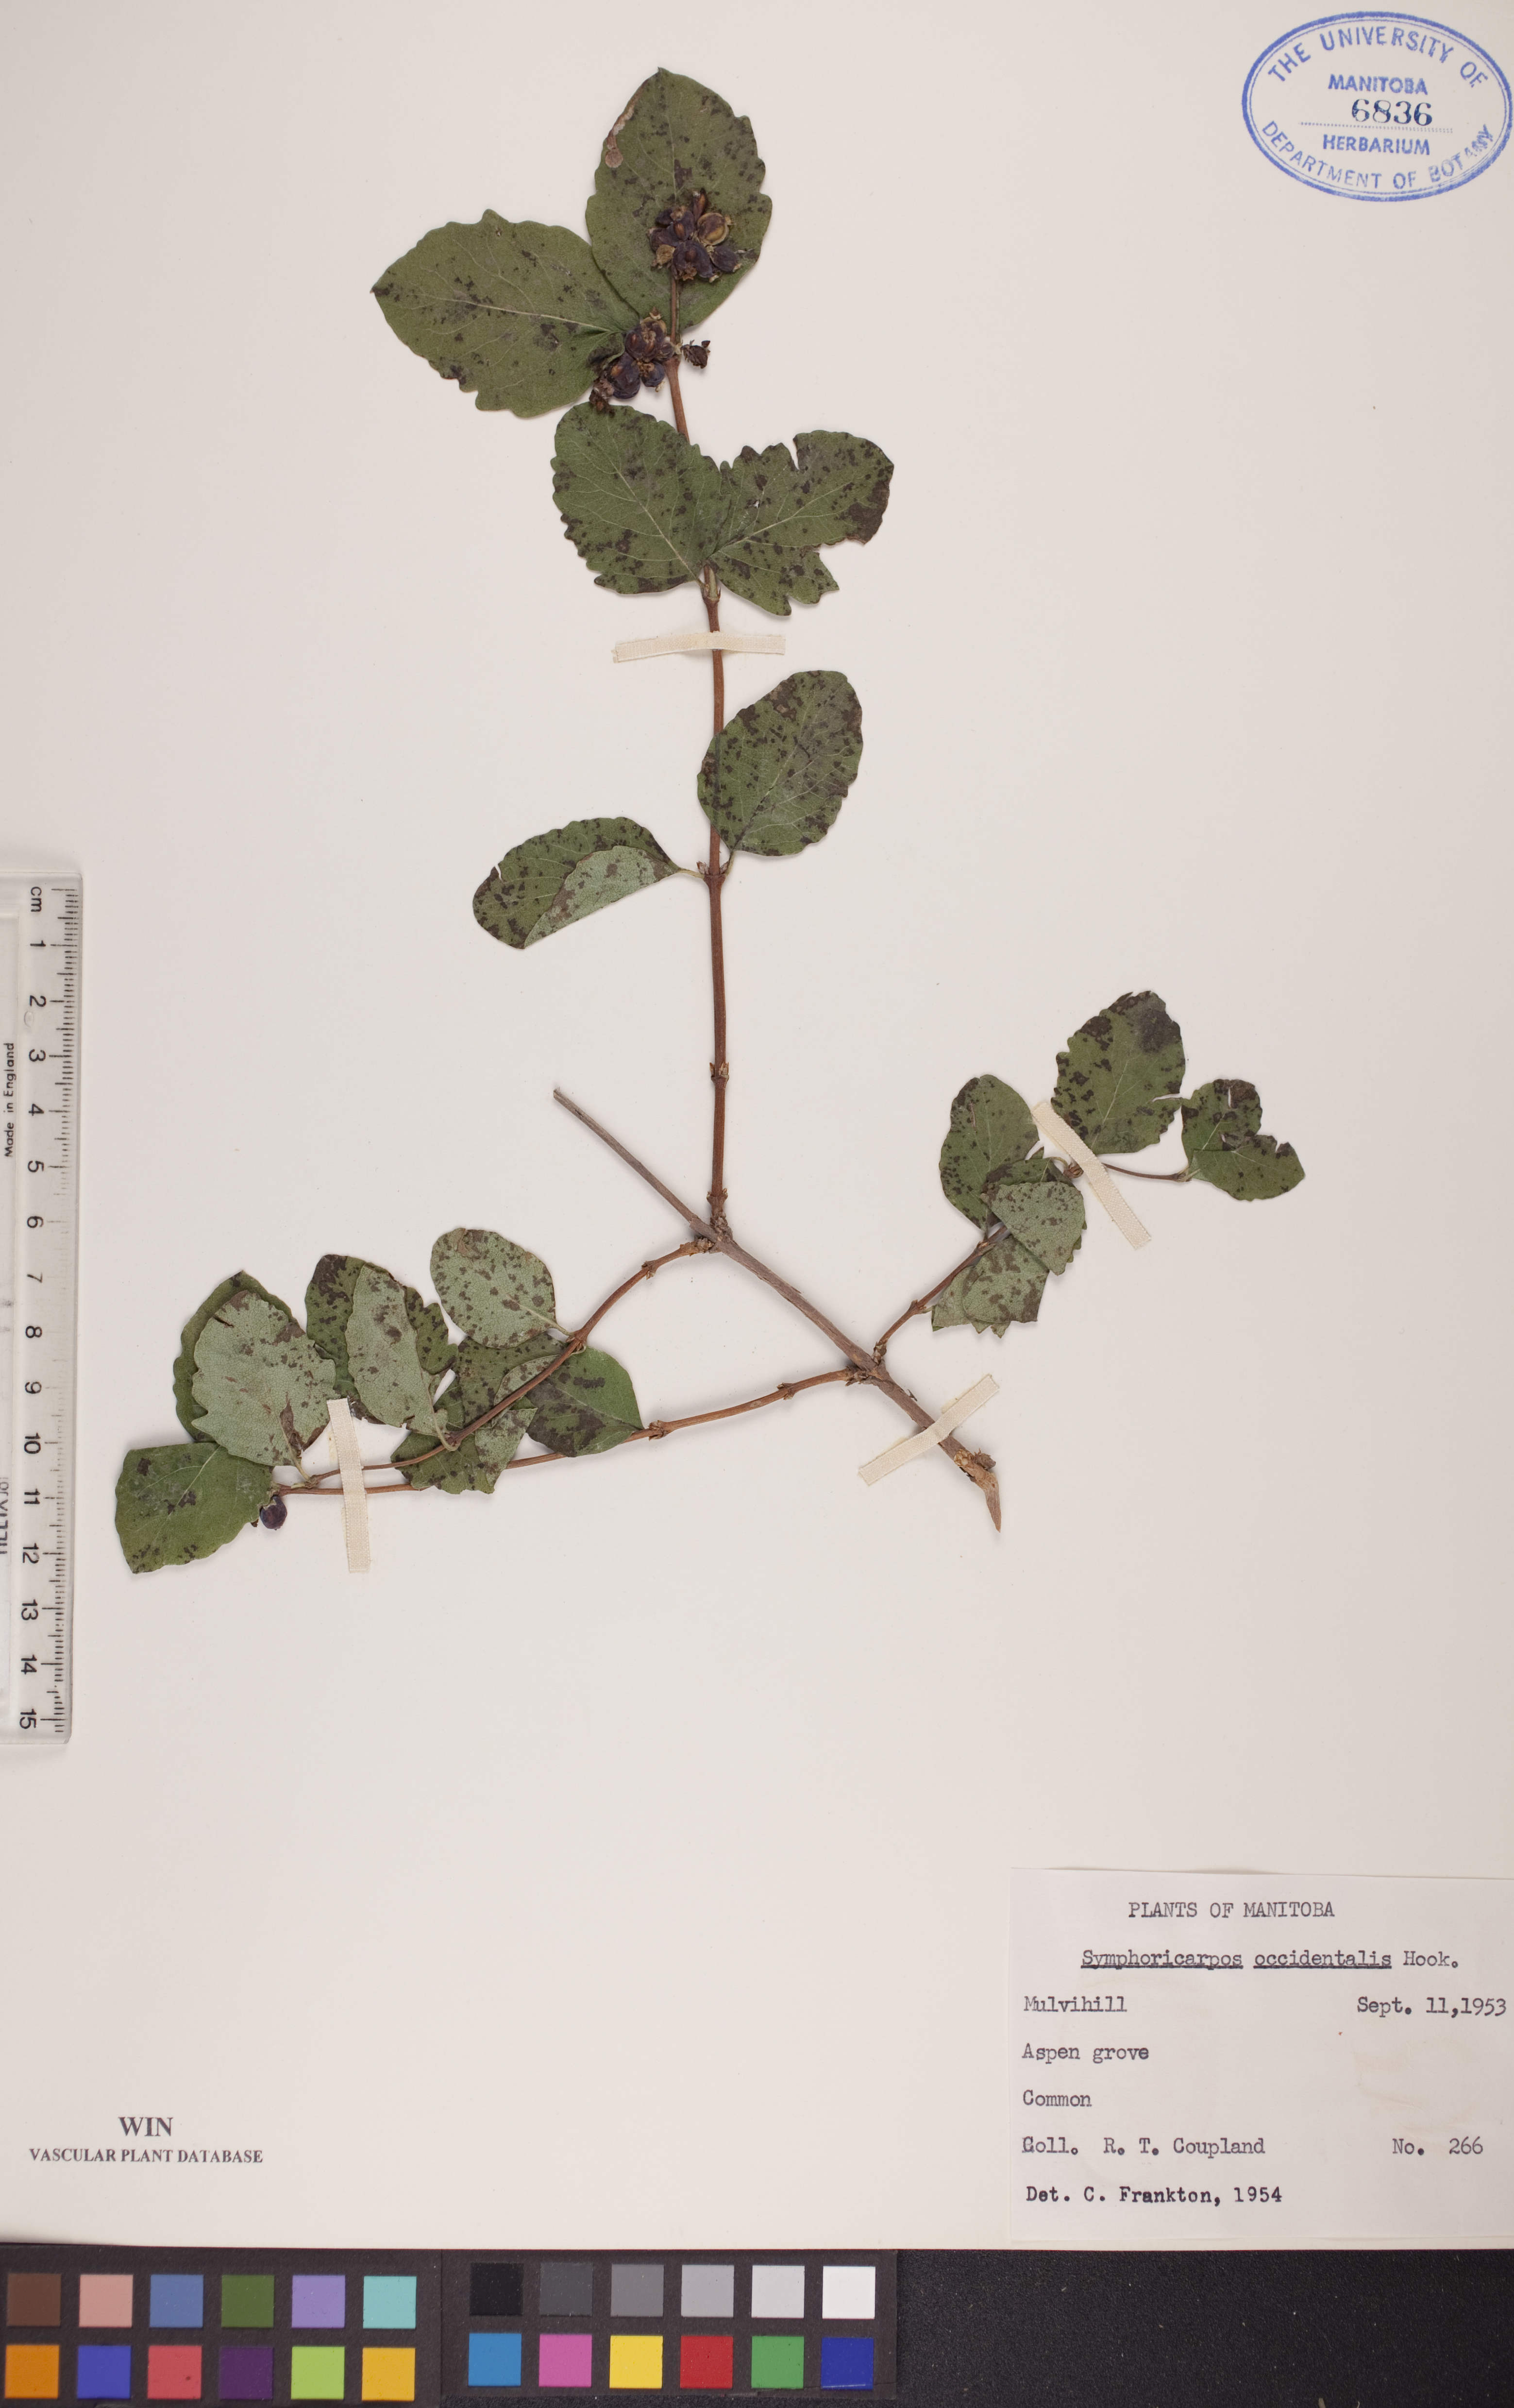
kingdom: Plantae
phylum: Tracheophyta
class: Magnoliopsida
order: Dipsacales
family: Caprifoliaceae
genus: Symphoricarpos
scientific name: Symphoricarpos occidentalis
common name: Wolfberry
